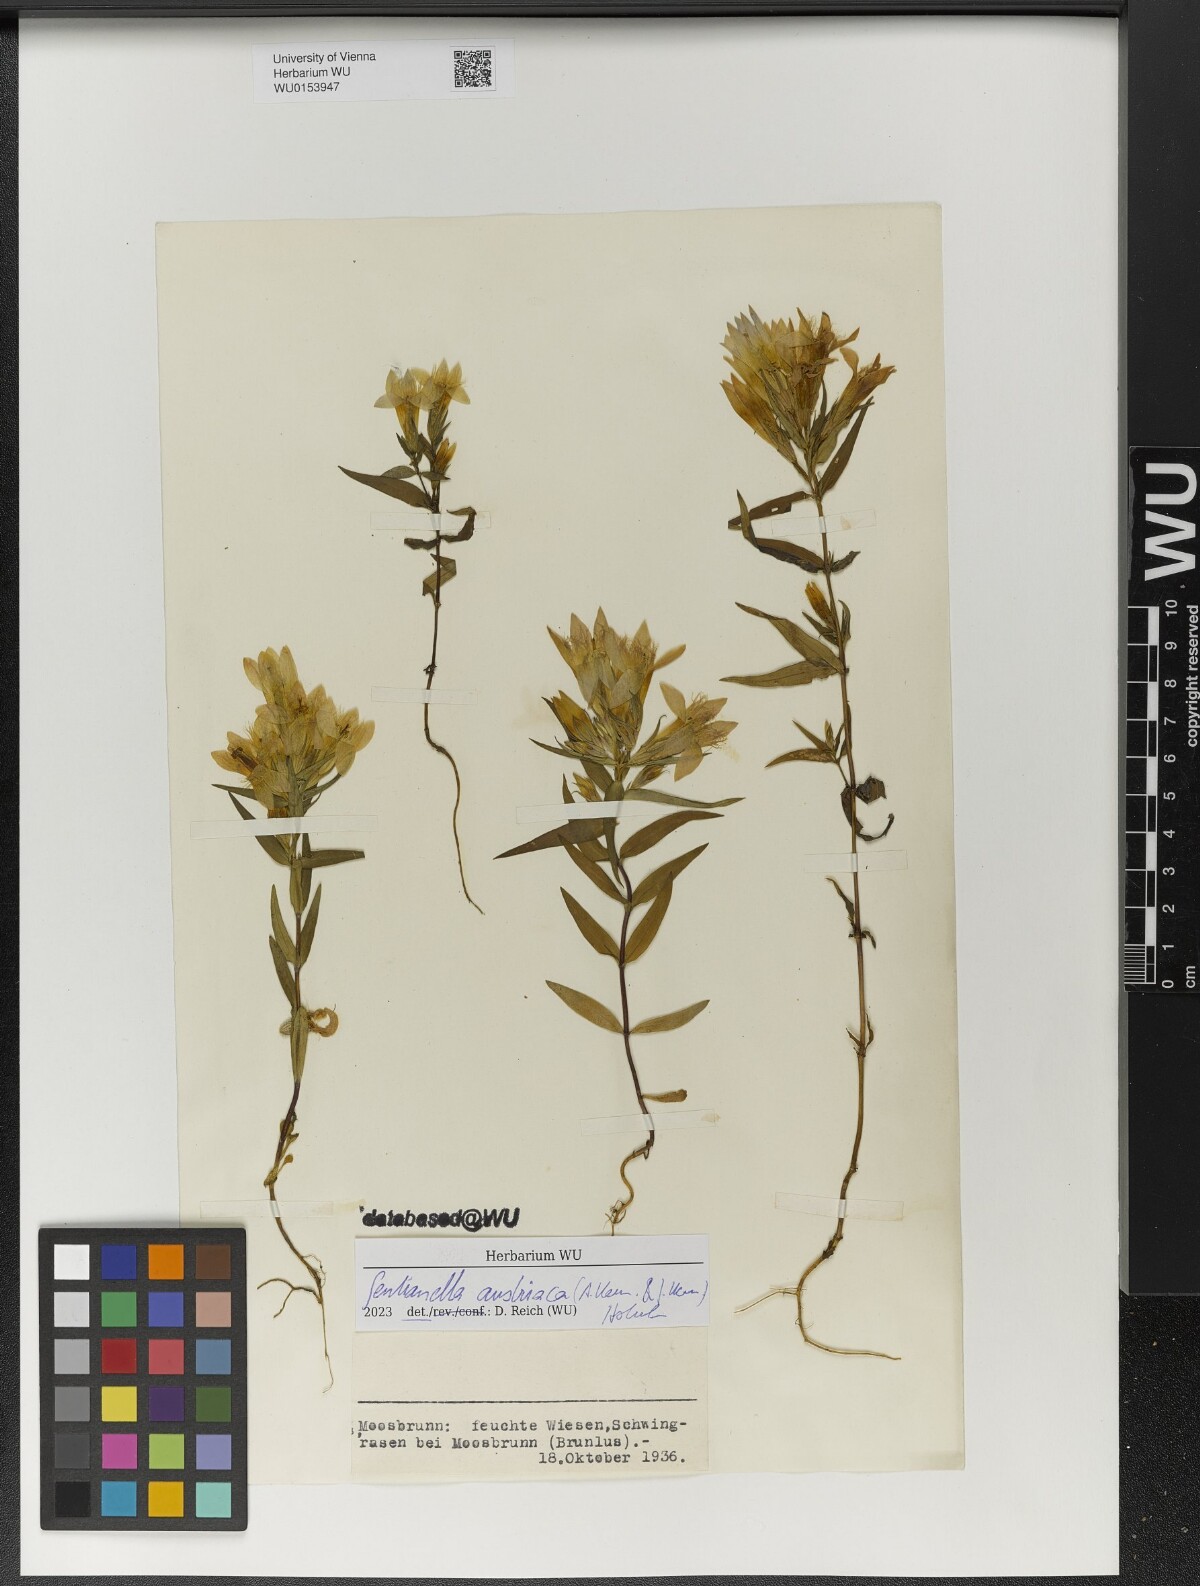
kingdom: Plantae
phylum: Tracheophyta
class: Magnoliopsida
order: Gentianales
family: Gentianaceae
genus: Gentianella
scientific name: Gentianella austriaca
